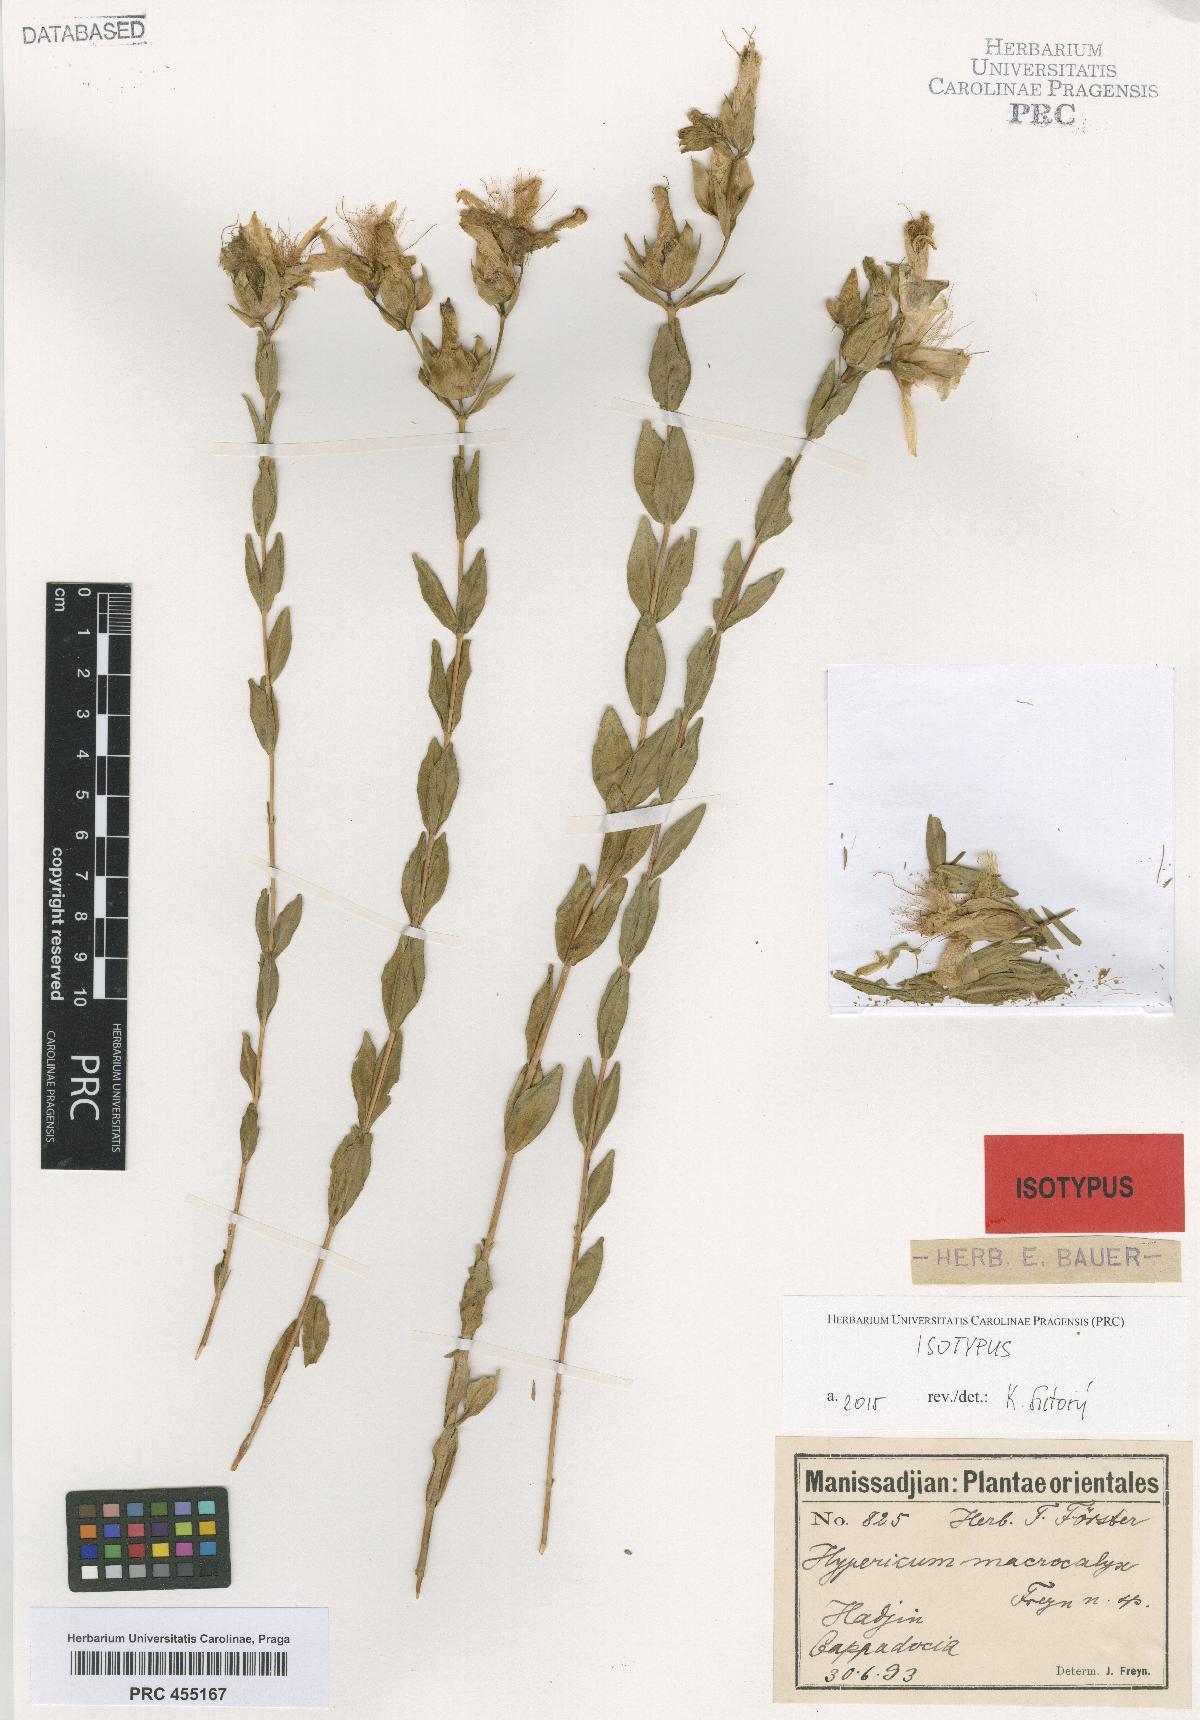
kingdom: Plantae
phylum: Tracheophyta
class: Magnoliopsida
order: Malpighiales
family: Hypericaceae
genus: Hypericum
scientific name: Hypericum polyphyllum
